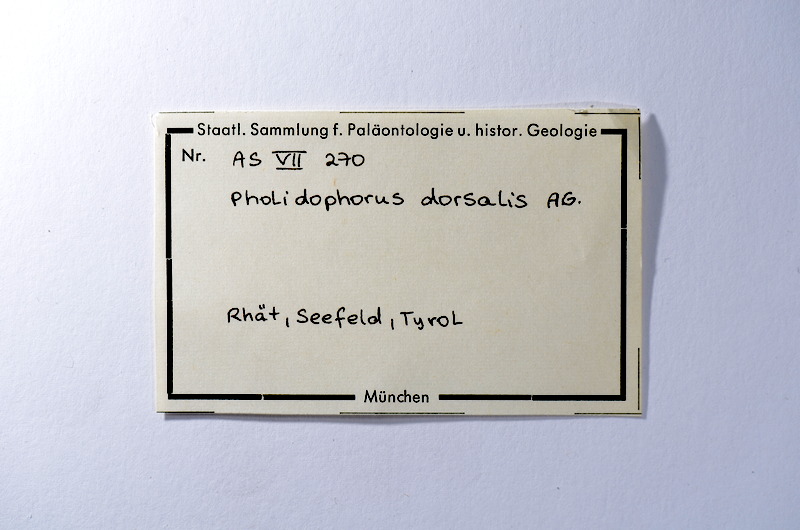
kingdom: Animalia
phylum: Chordata
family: Ophiopsiellidae
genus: Heterolepidotus
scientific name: Heterolepidotus Pholidophorus dorsalis
